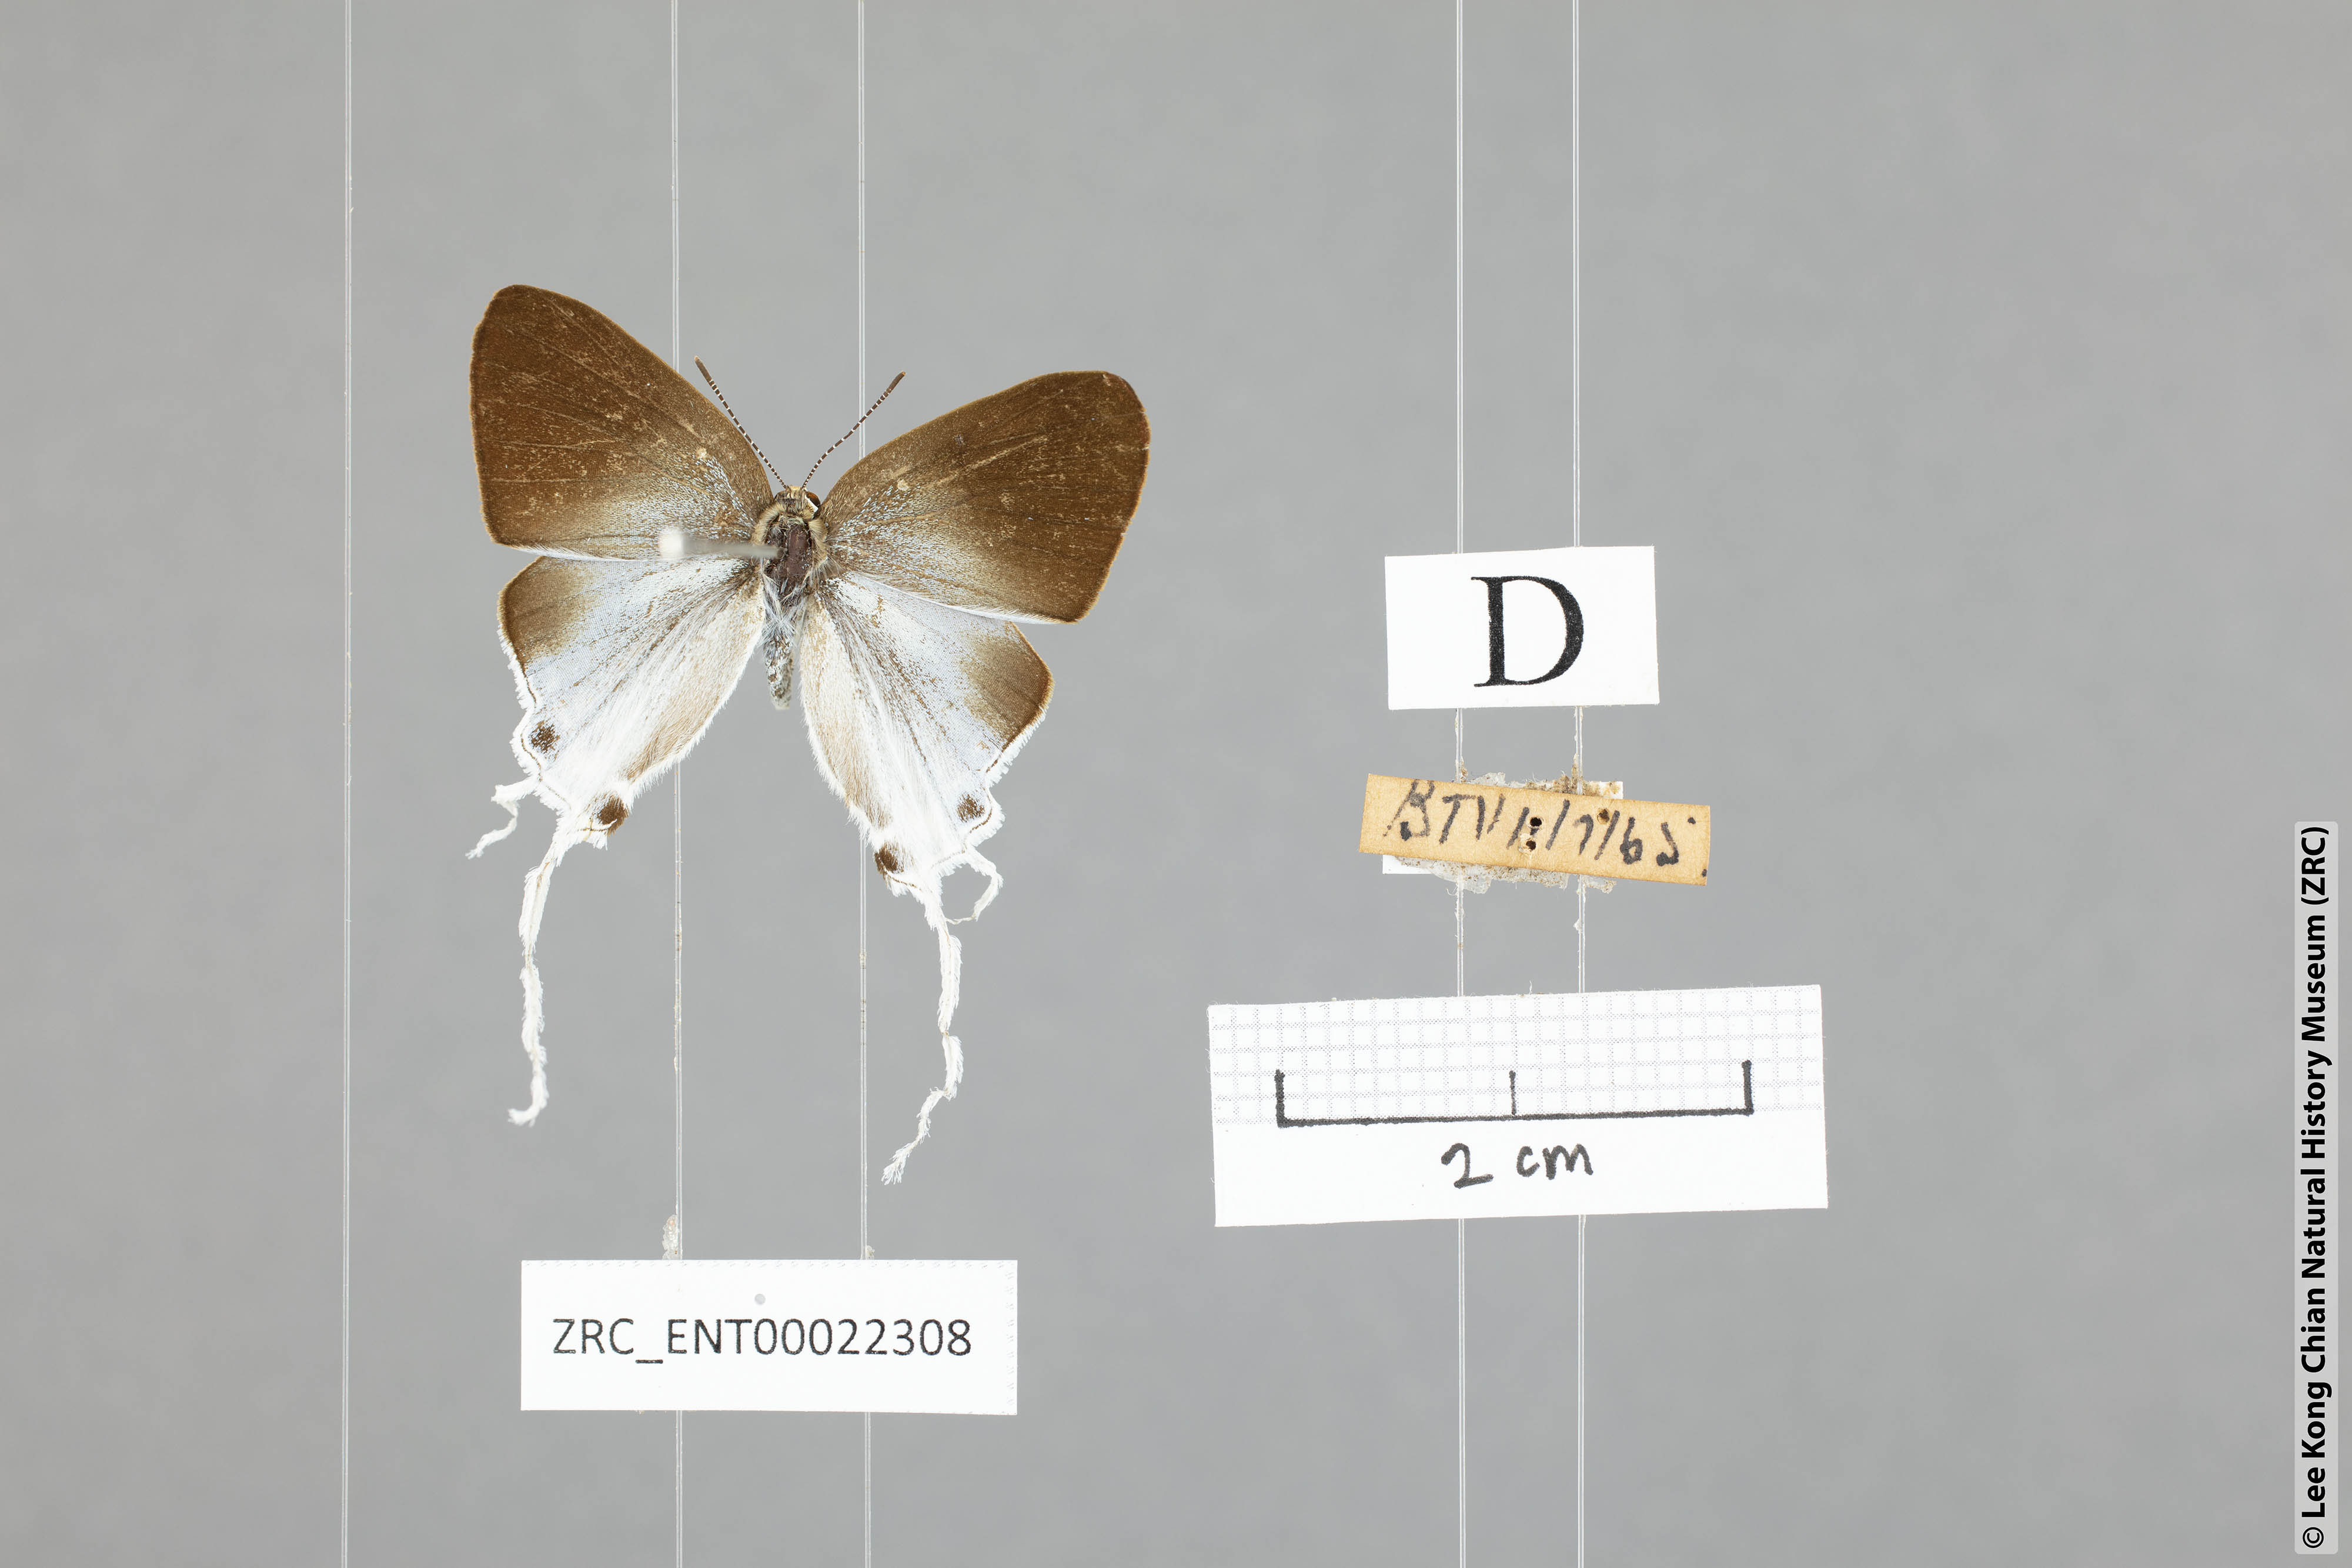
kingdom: Animalia
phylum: Arthropoda
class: Insecta
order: Lepidoptera
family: Lycaenidae
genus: Zeltus
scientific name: Zeltus amasa
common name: Fluffy tit
